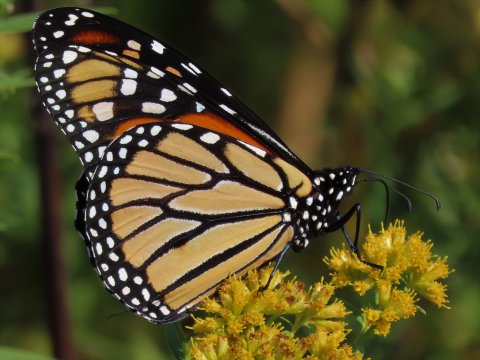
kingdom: Animalia
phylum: Arthropoda
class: Insecta
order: Lepidoptera
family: Nymphalidae
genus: Danaus
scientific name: Danaus plexippus
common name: Monarch
